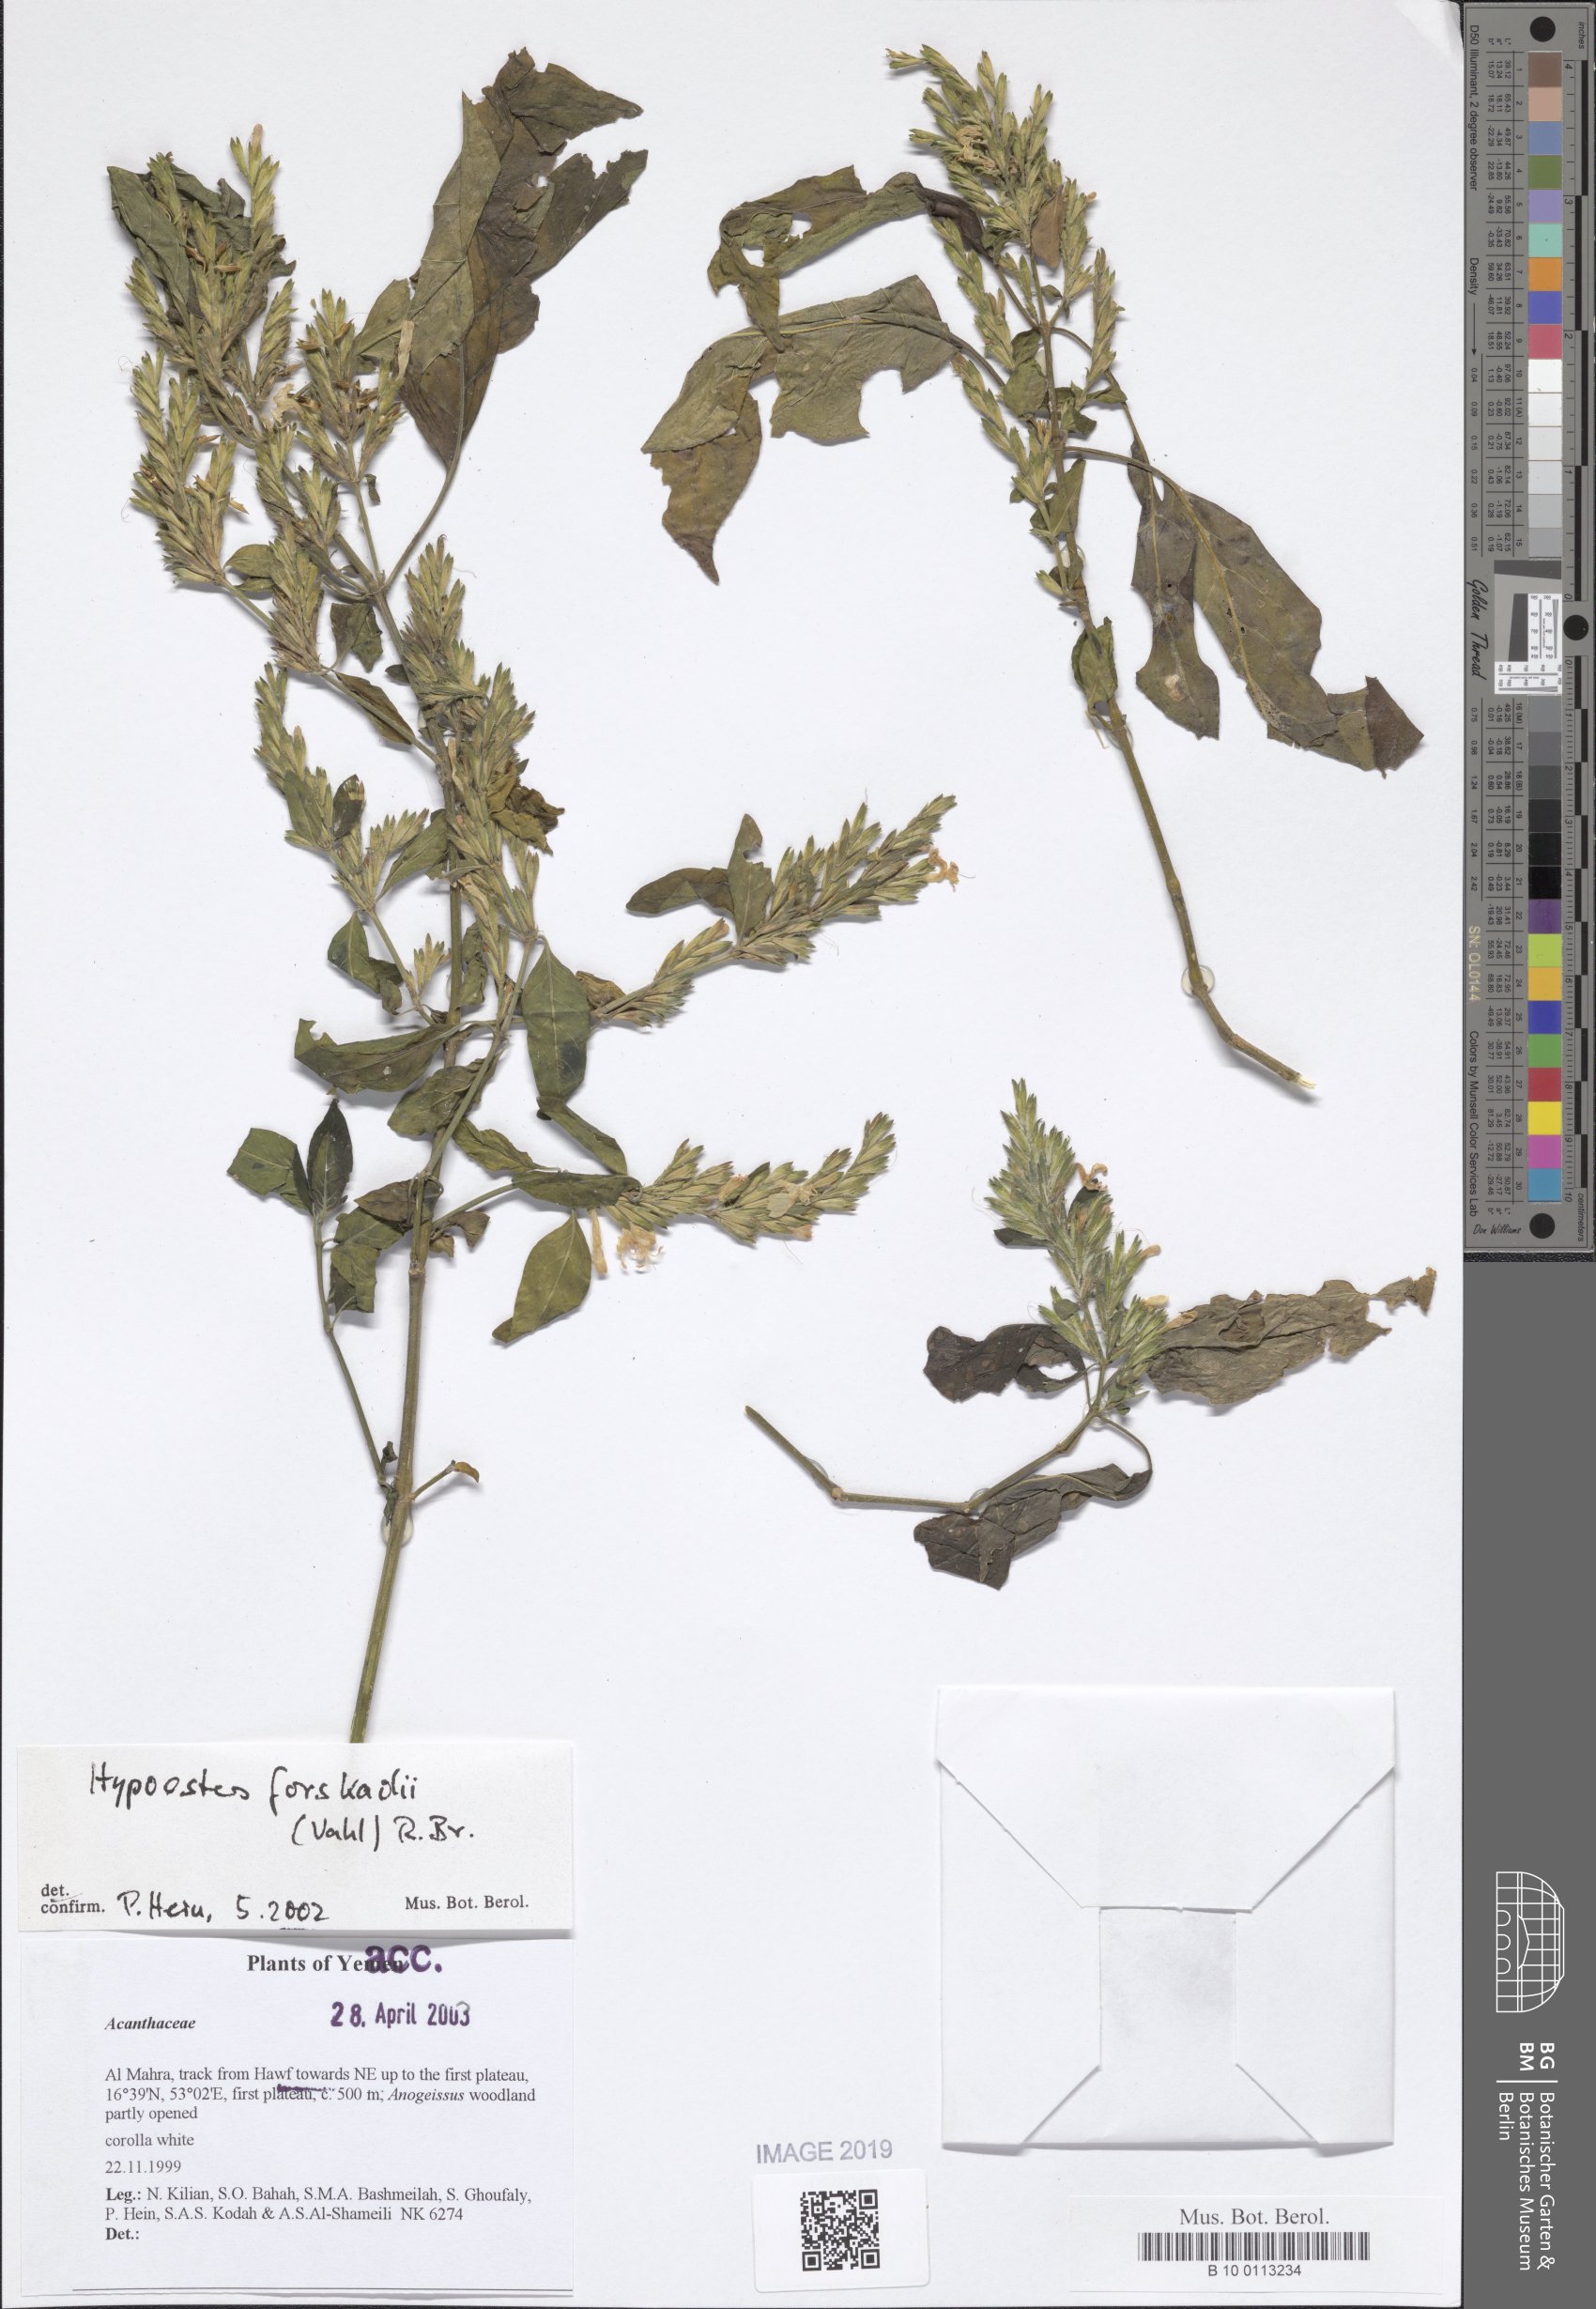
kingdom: Plantae
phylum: Tracheophyta
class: Magnoliopsida
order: Lamiales
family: Acanthaceae
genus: Hypoestes
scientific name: Hypoestes forskaolii
